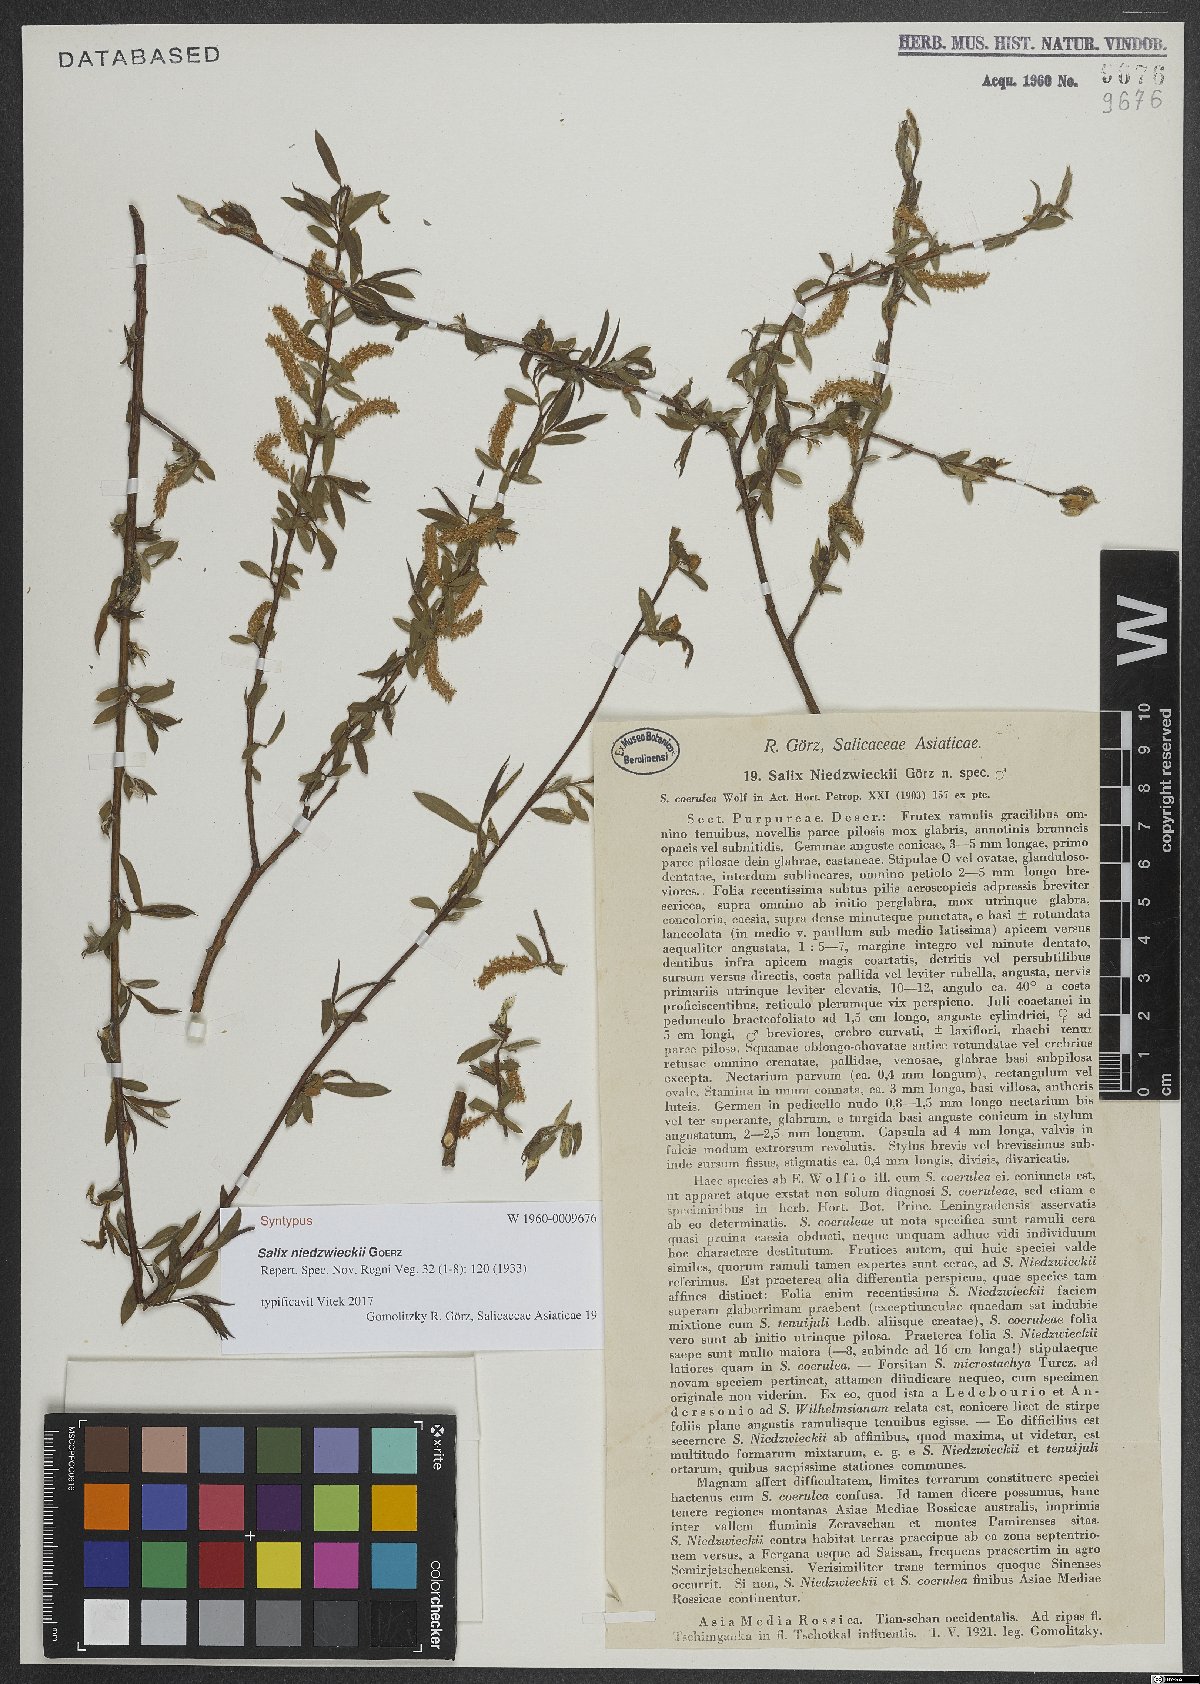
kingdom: Plantae
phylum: Tracheophyta
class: Magnoliopsida
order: Malpighiales
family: Salicaceae
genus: Salix
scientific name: Salix capusii
